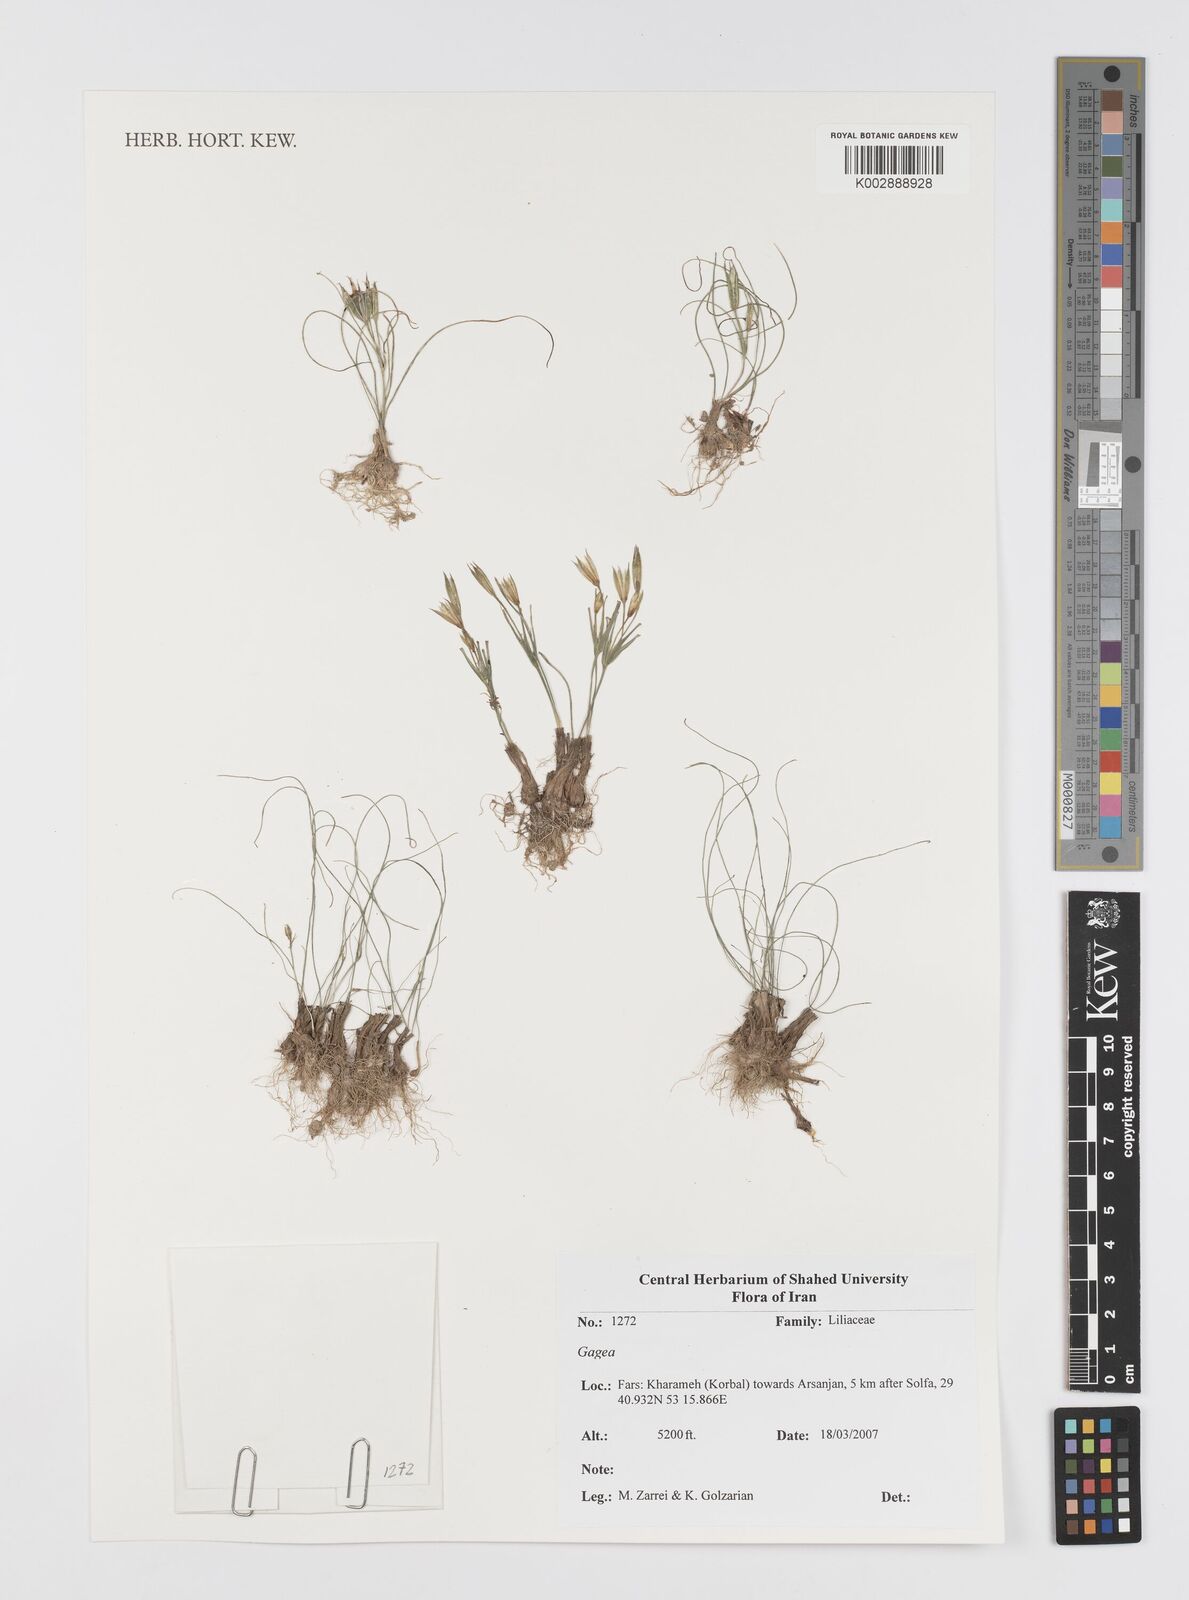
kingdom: Plantae
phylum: Tracheophyta
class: Liliopsida
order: Liliales
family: Liliaceae
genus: Gagea
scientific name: Gagea
